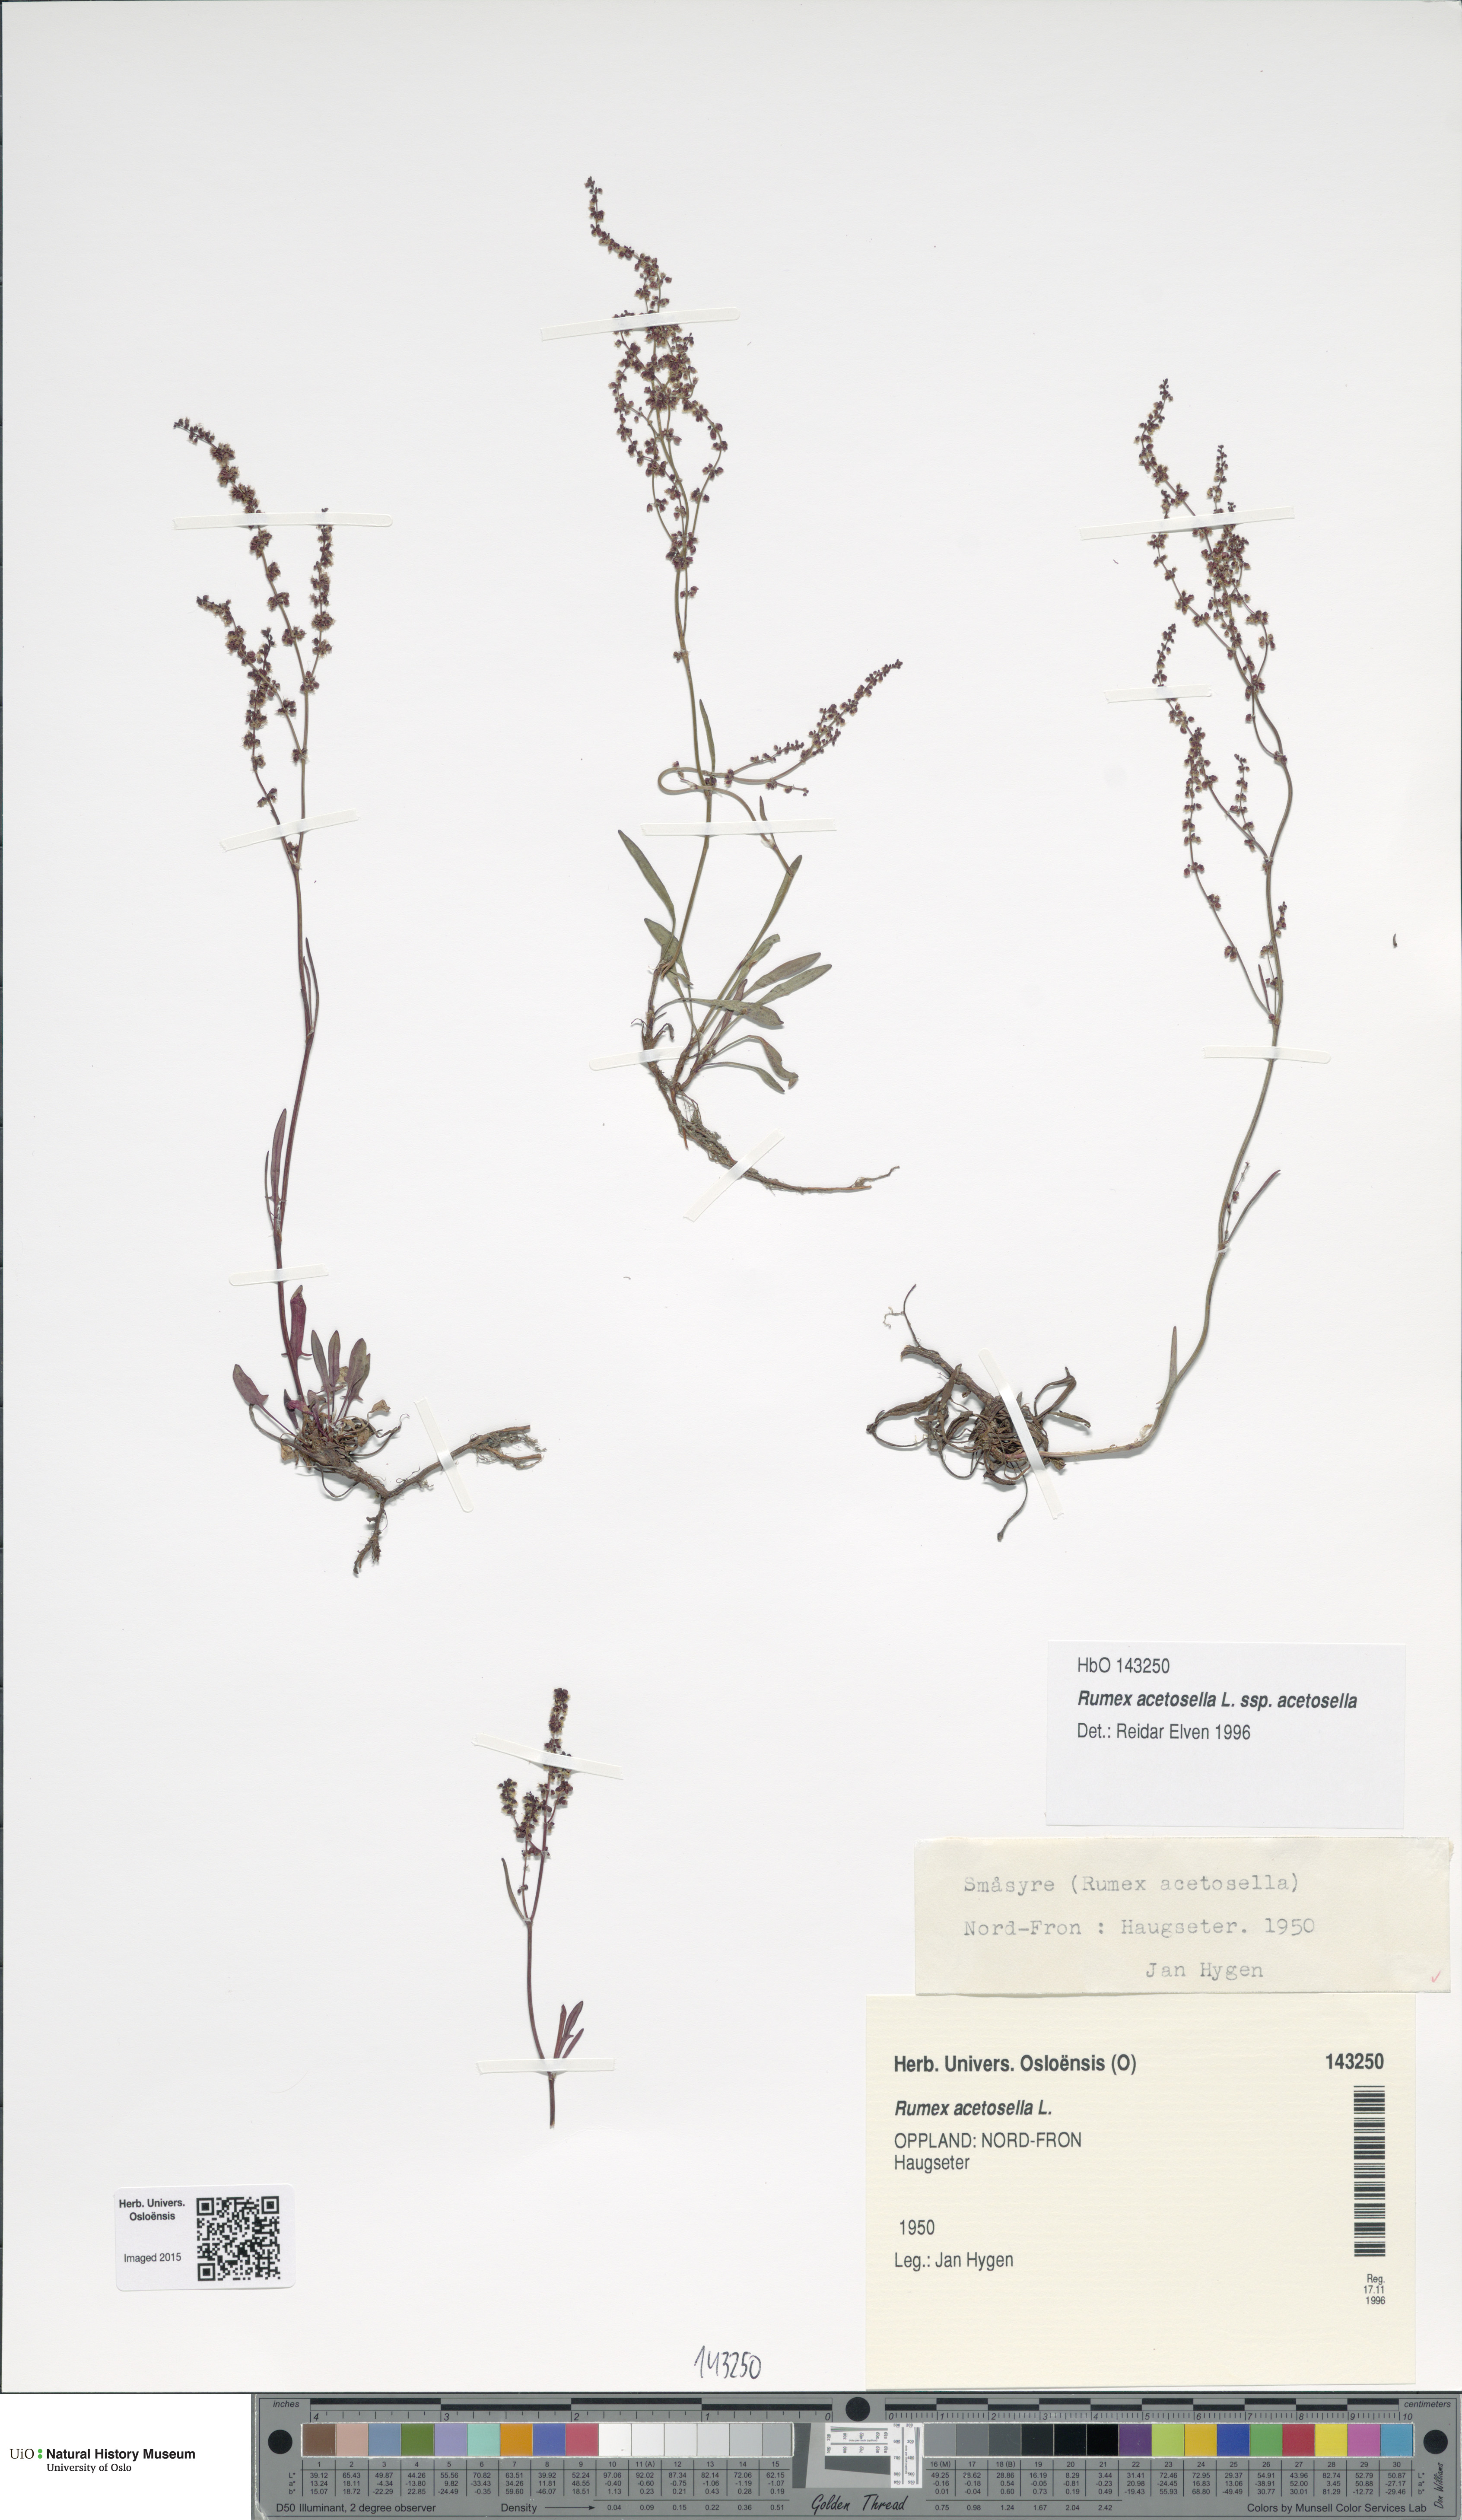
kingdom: Plantae
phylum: Tracheophyta
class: Magnoliopsida
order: Caryophyllales
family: Polygonaceae
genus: Rumex
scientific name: Rumex acetosella
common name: Common sheep sorrel
